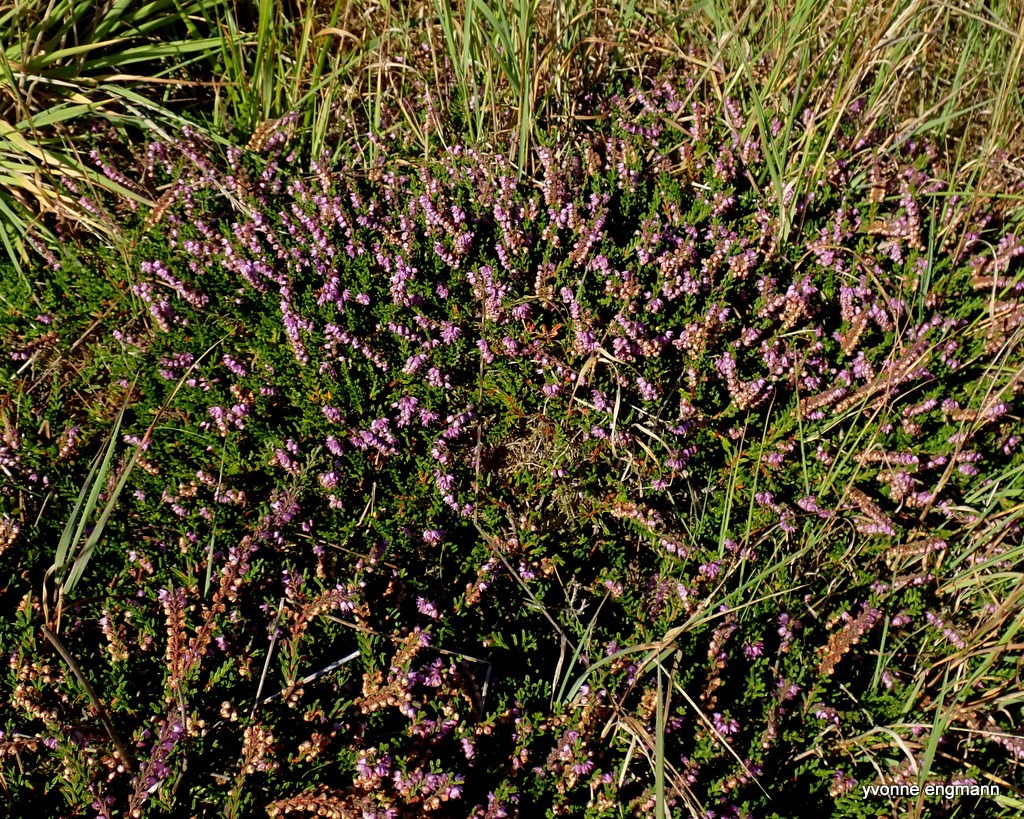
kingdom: Plantae
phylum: Tracheophyta
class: Magnoliopsida
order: Ericales
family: Ericaceae
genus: Calluna
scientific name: Calluna vulgaris
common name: Hedelyng
